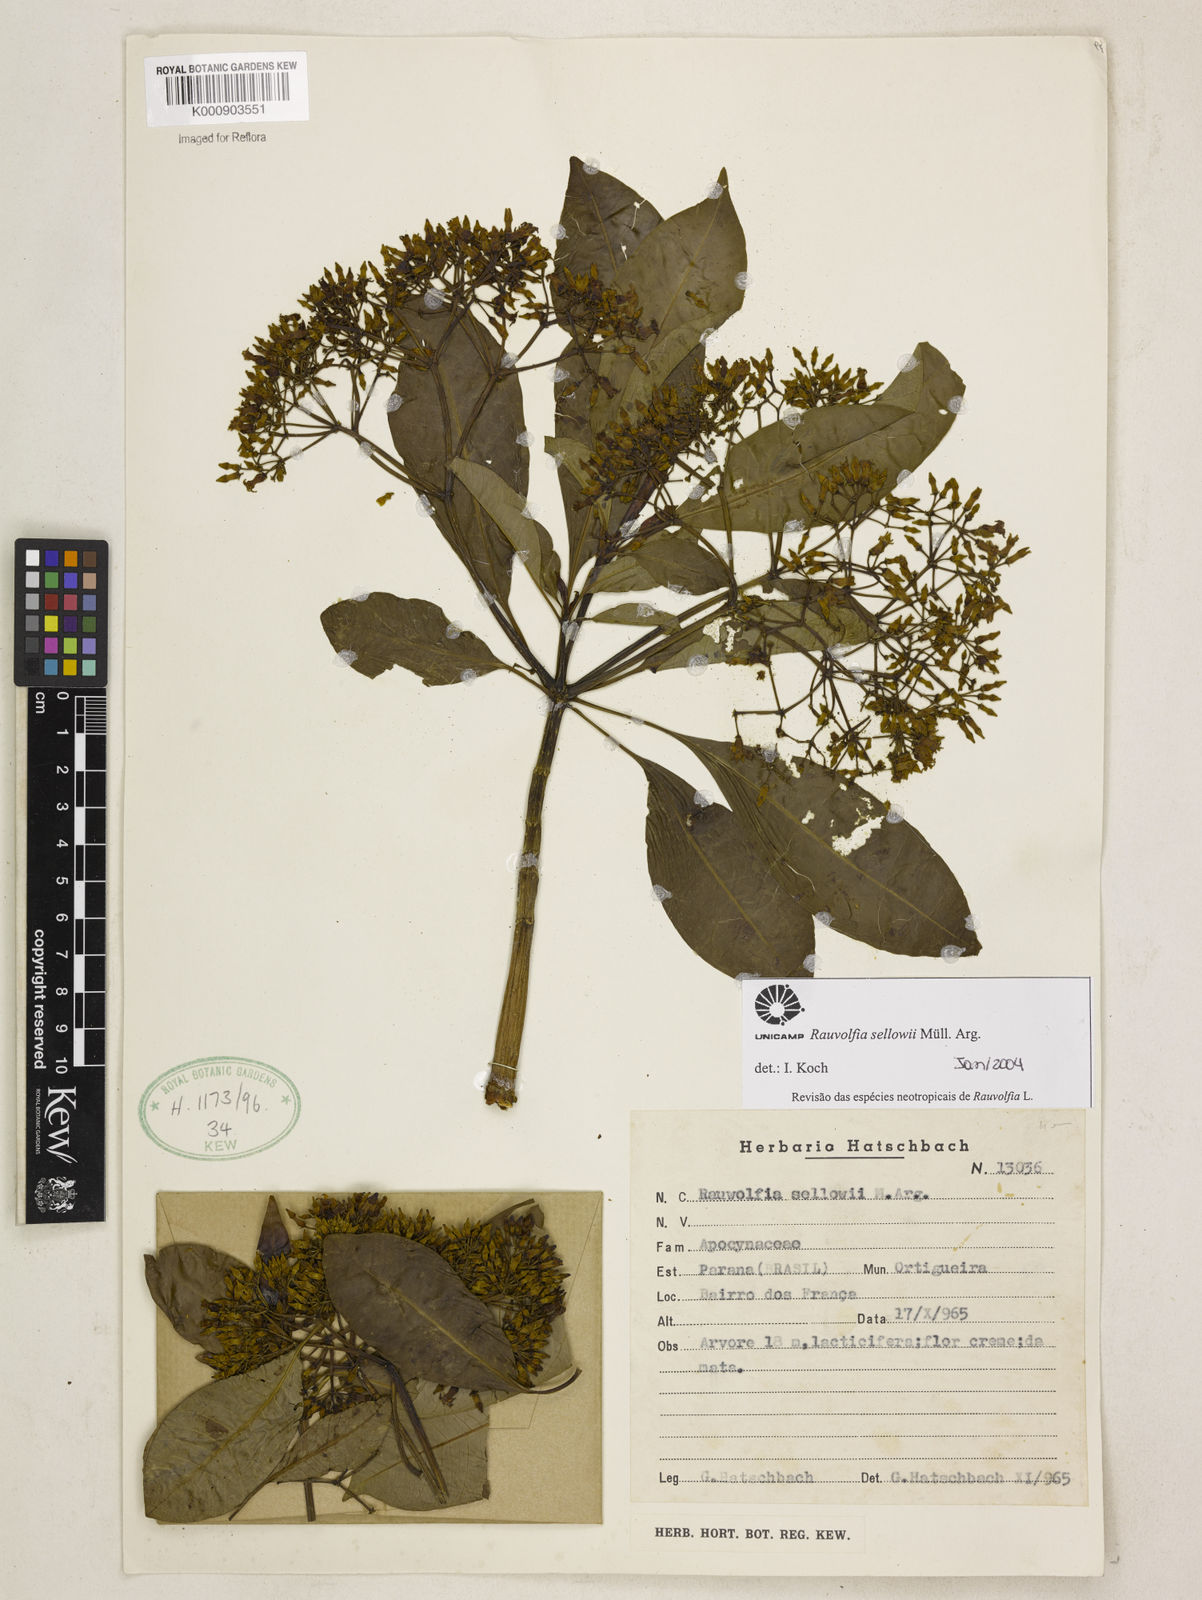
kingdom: Plantae
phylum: Tracheophyta
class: Magnoliopsida
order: Gentianales
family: Apocynaceae
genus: Rauvolfia
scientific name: Rauvolfia
